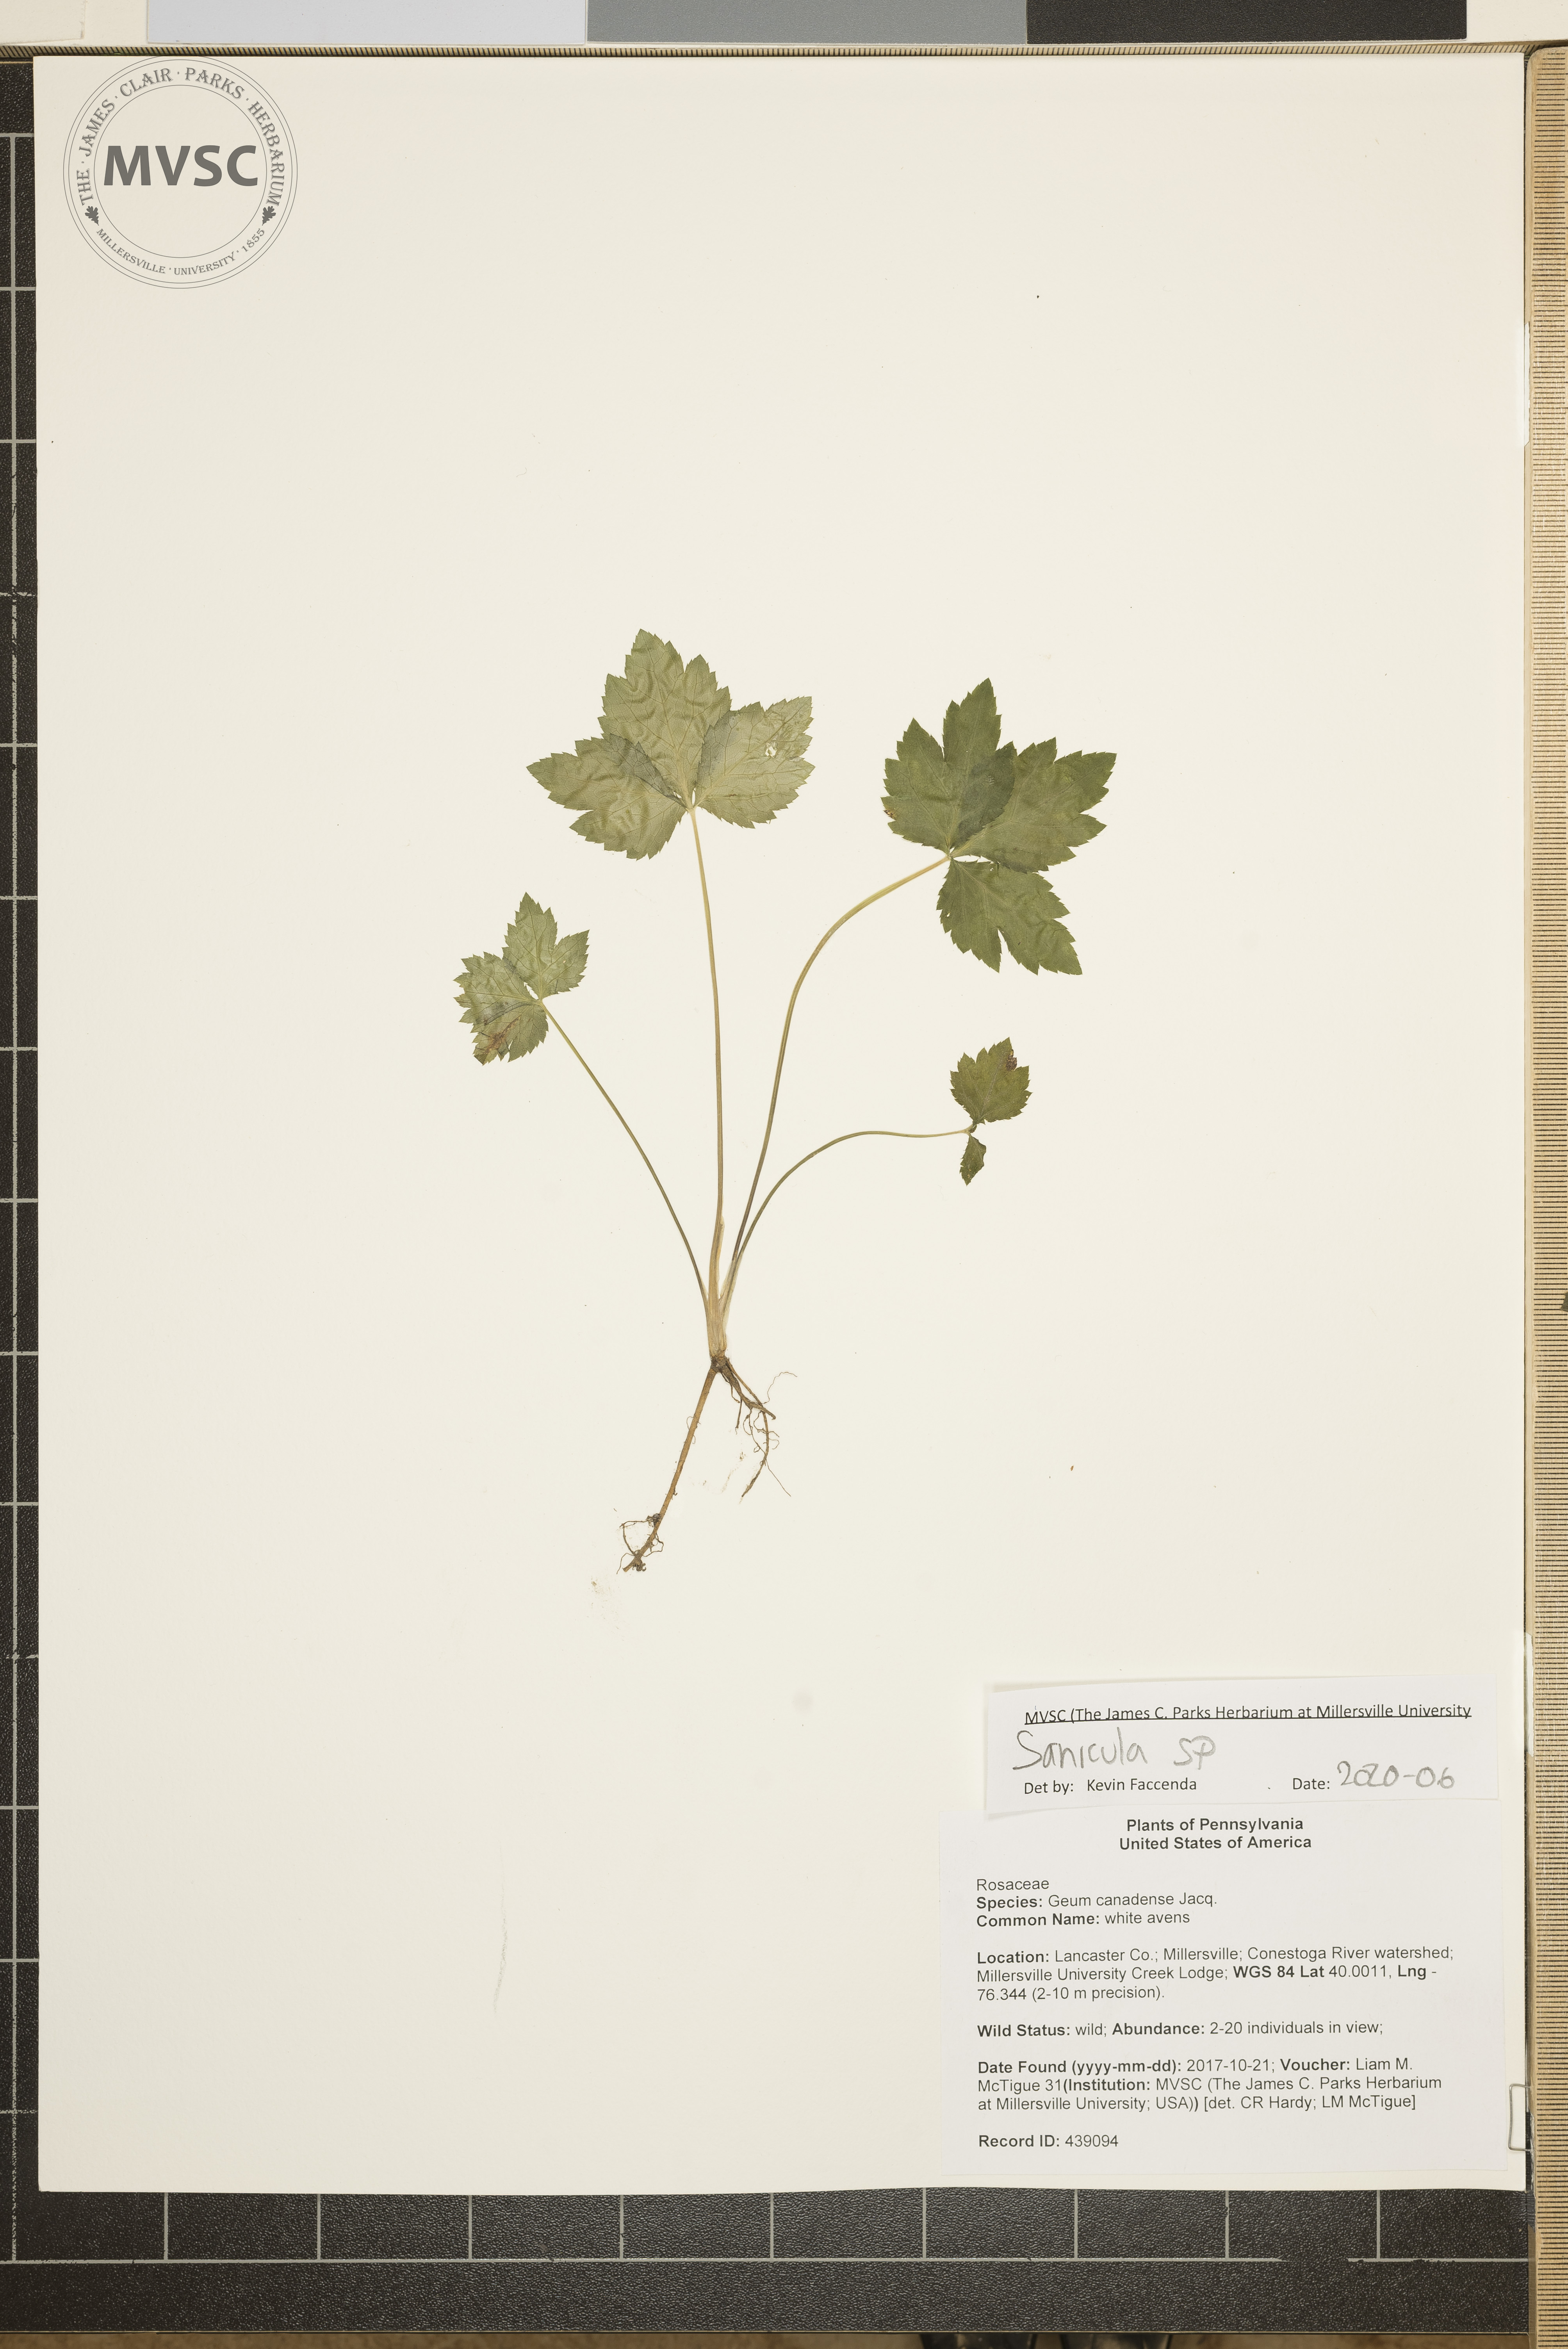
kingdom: Plantae
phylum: Tracheophyta
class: Magnoliopsida
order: Apiales
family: Apiaceae
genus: Sanicula
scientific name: Sanicula
